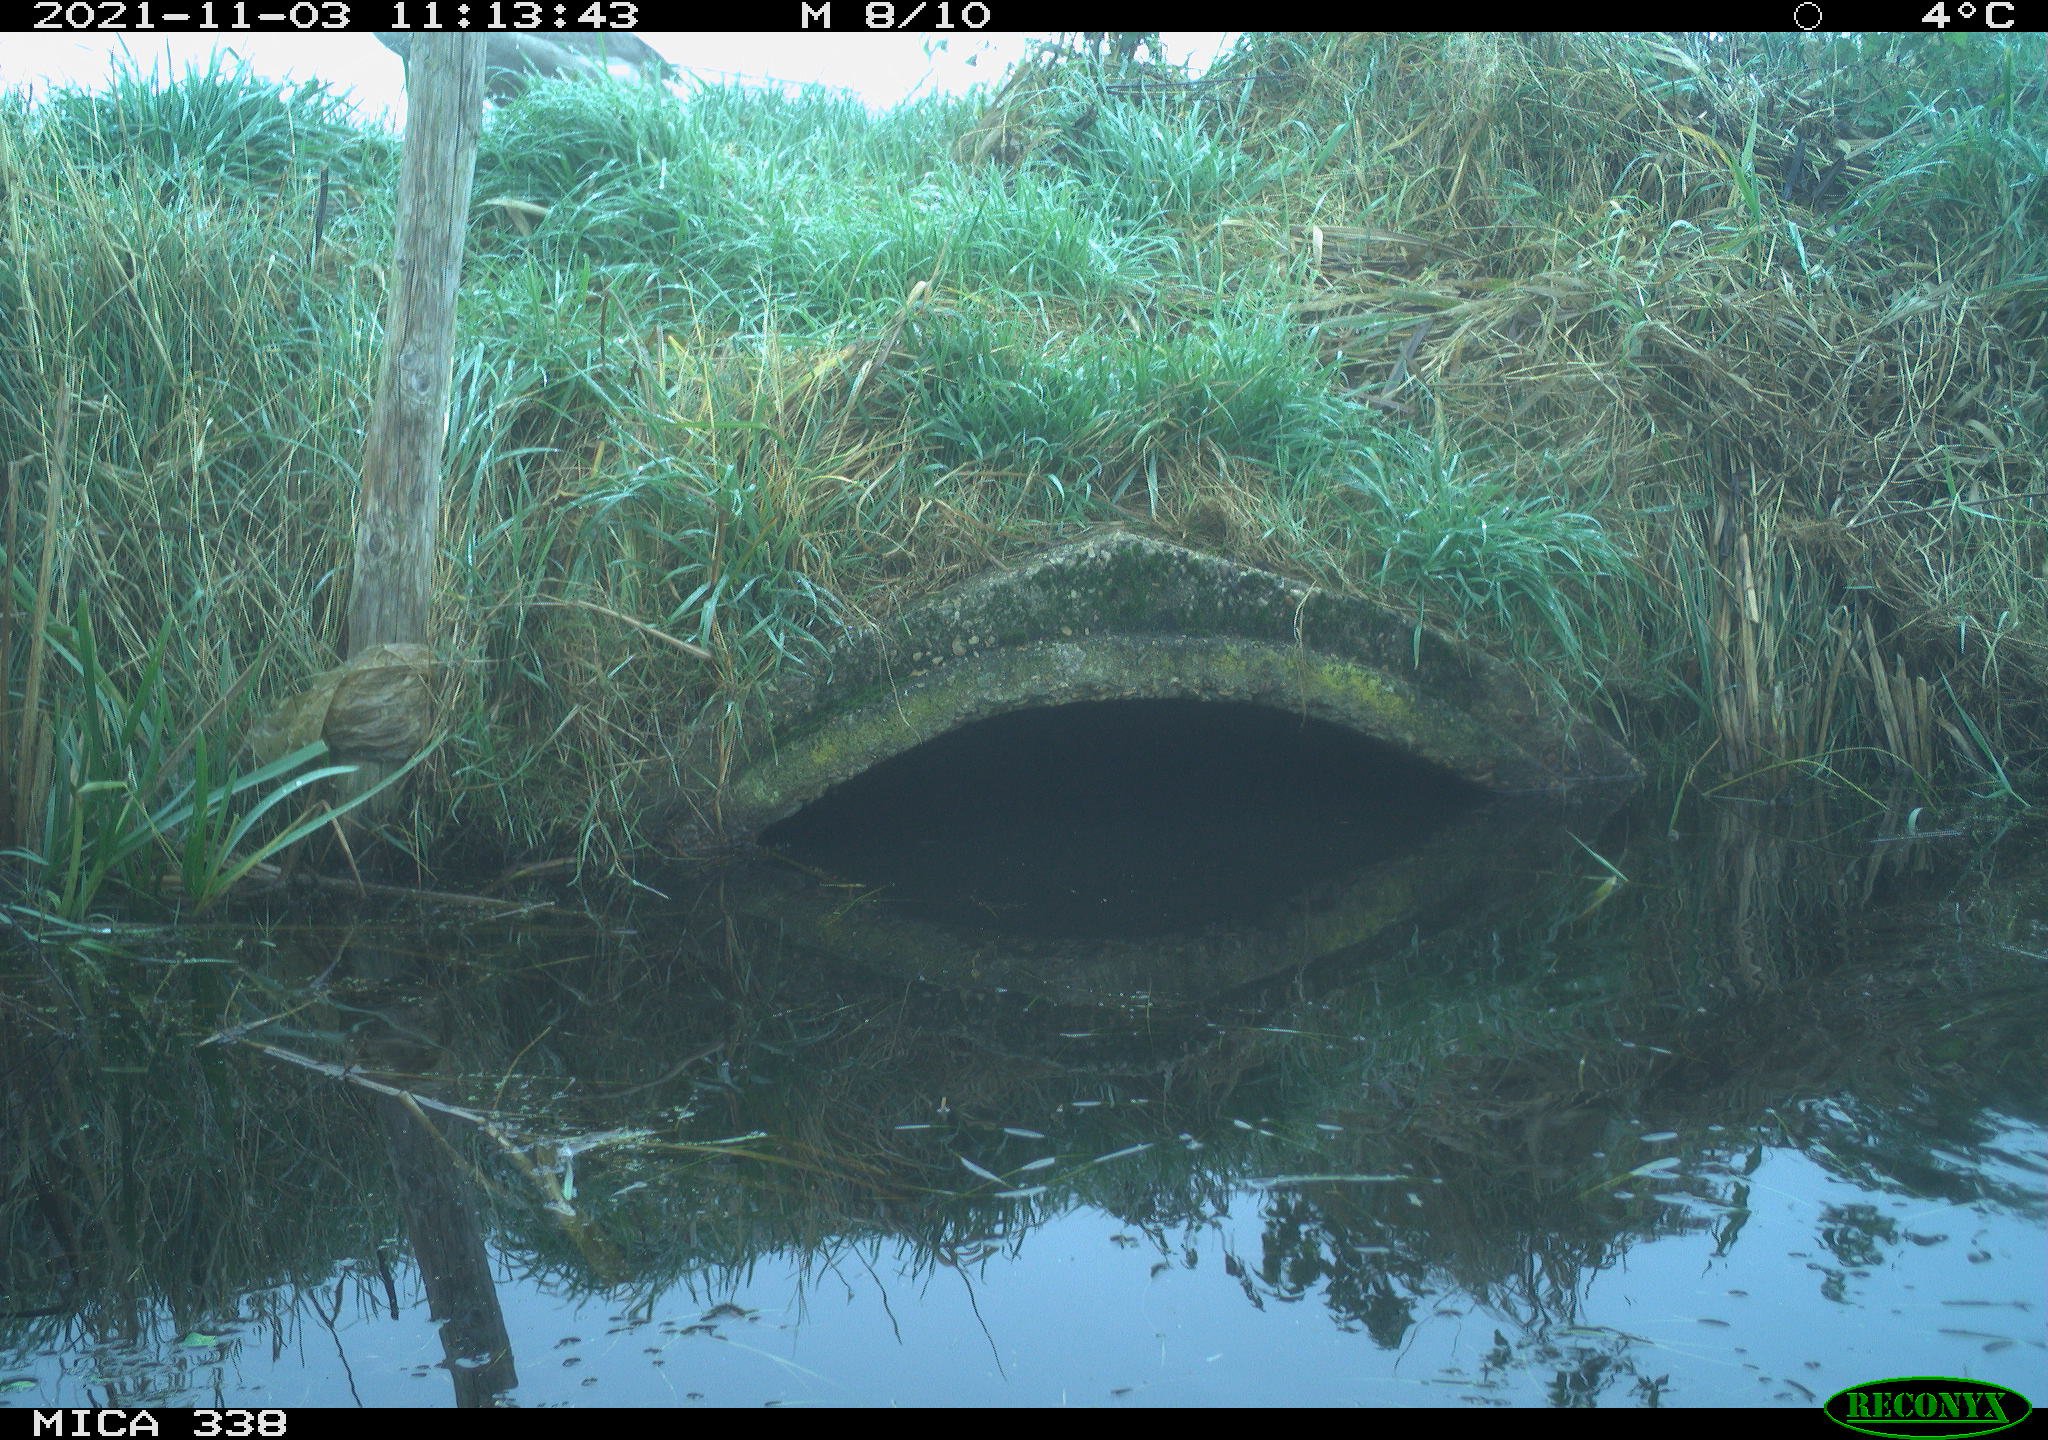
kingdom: Animalia
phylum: Chordata
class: Aves
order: Anseriformes
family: Anatidae
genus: Cygnus
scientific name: Cygnus olor
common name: Mute swan
